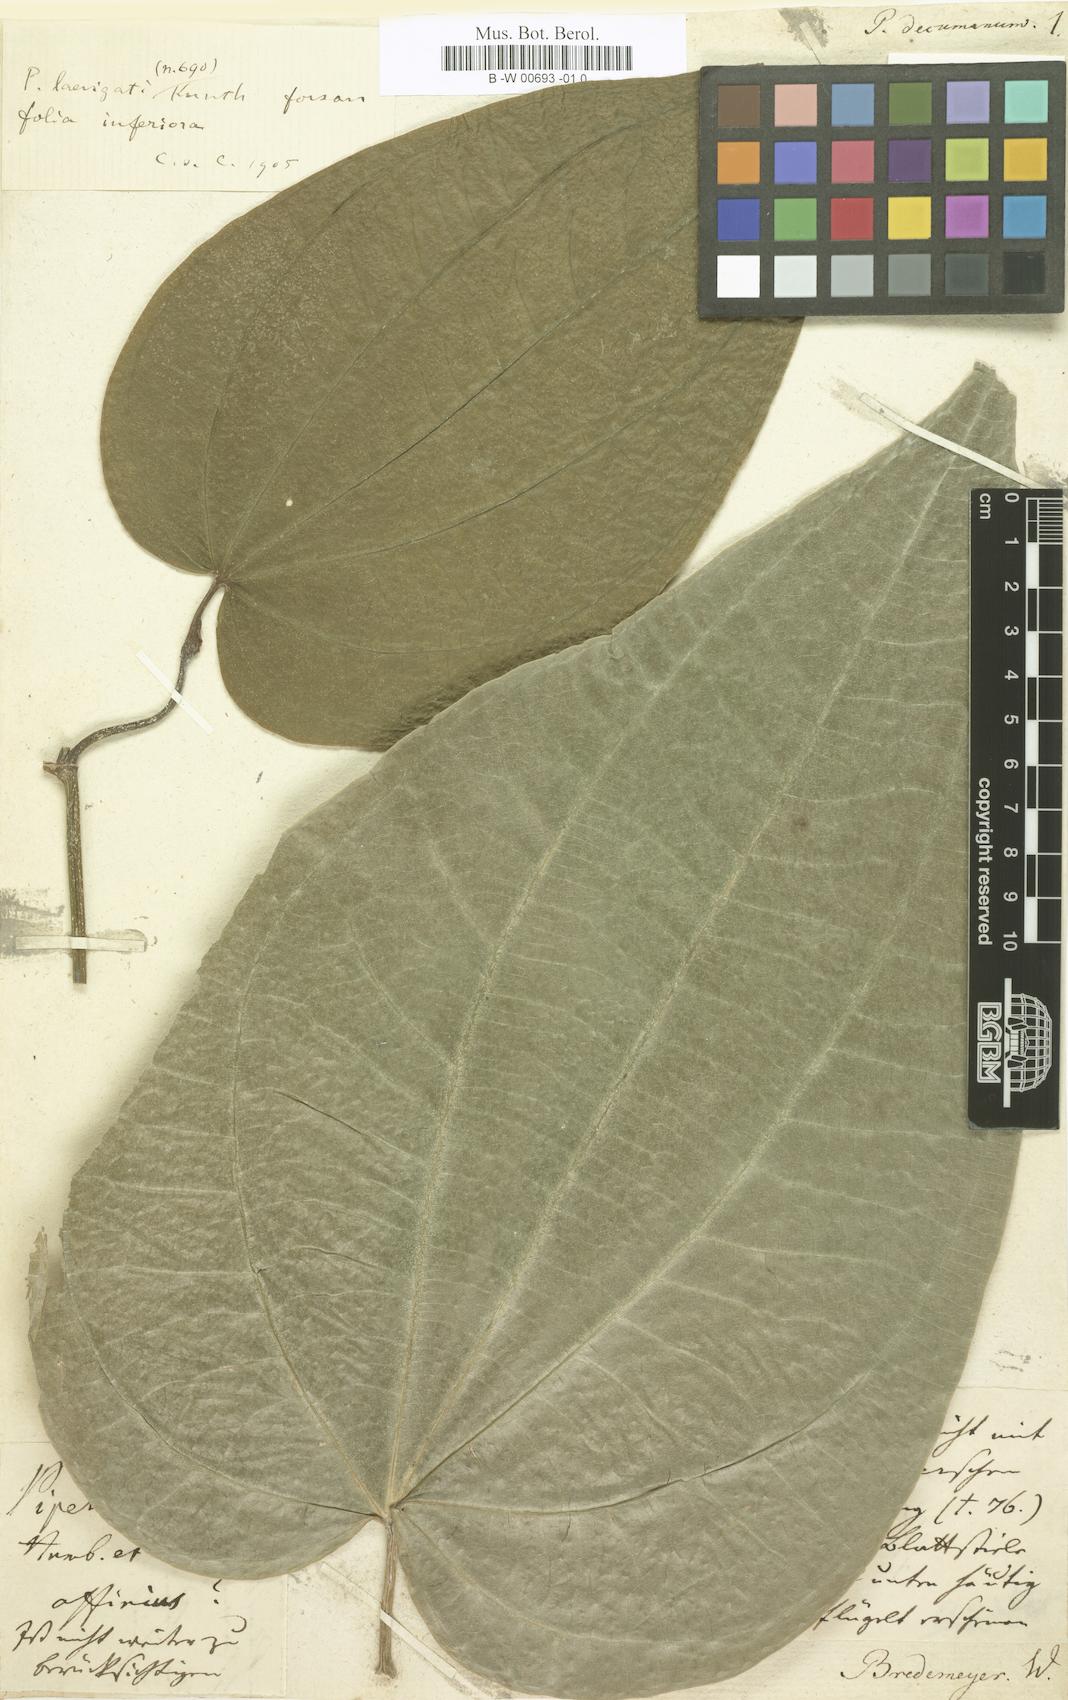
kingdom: Plantae
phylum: Tracheophyta
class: Magnoliopsida
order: Piperales
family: Piperaceae
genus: Macropiper
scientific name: Macropiper methysticum
